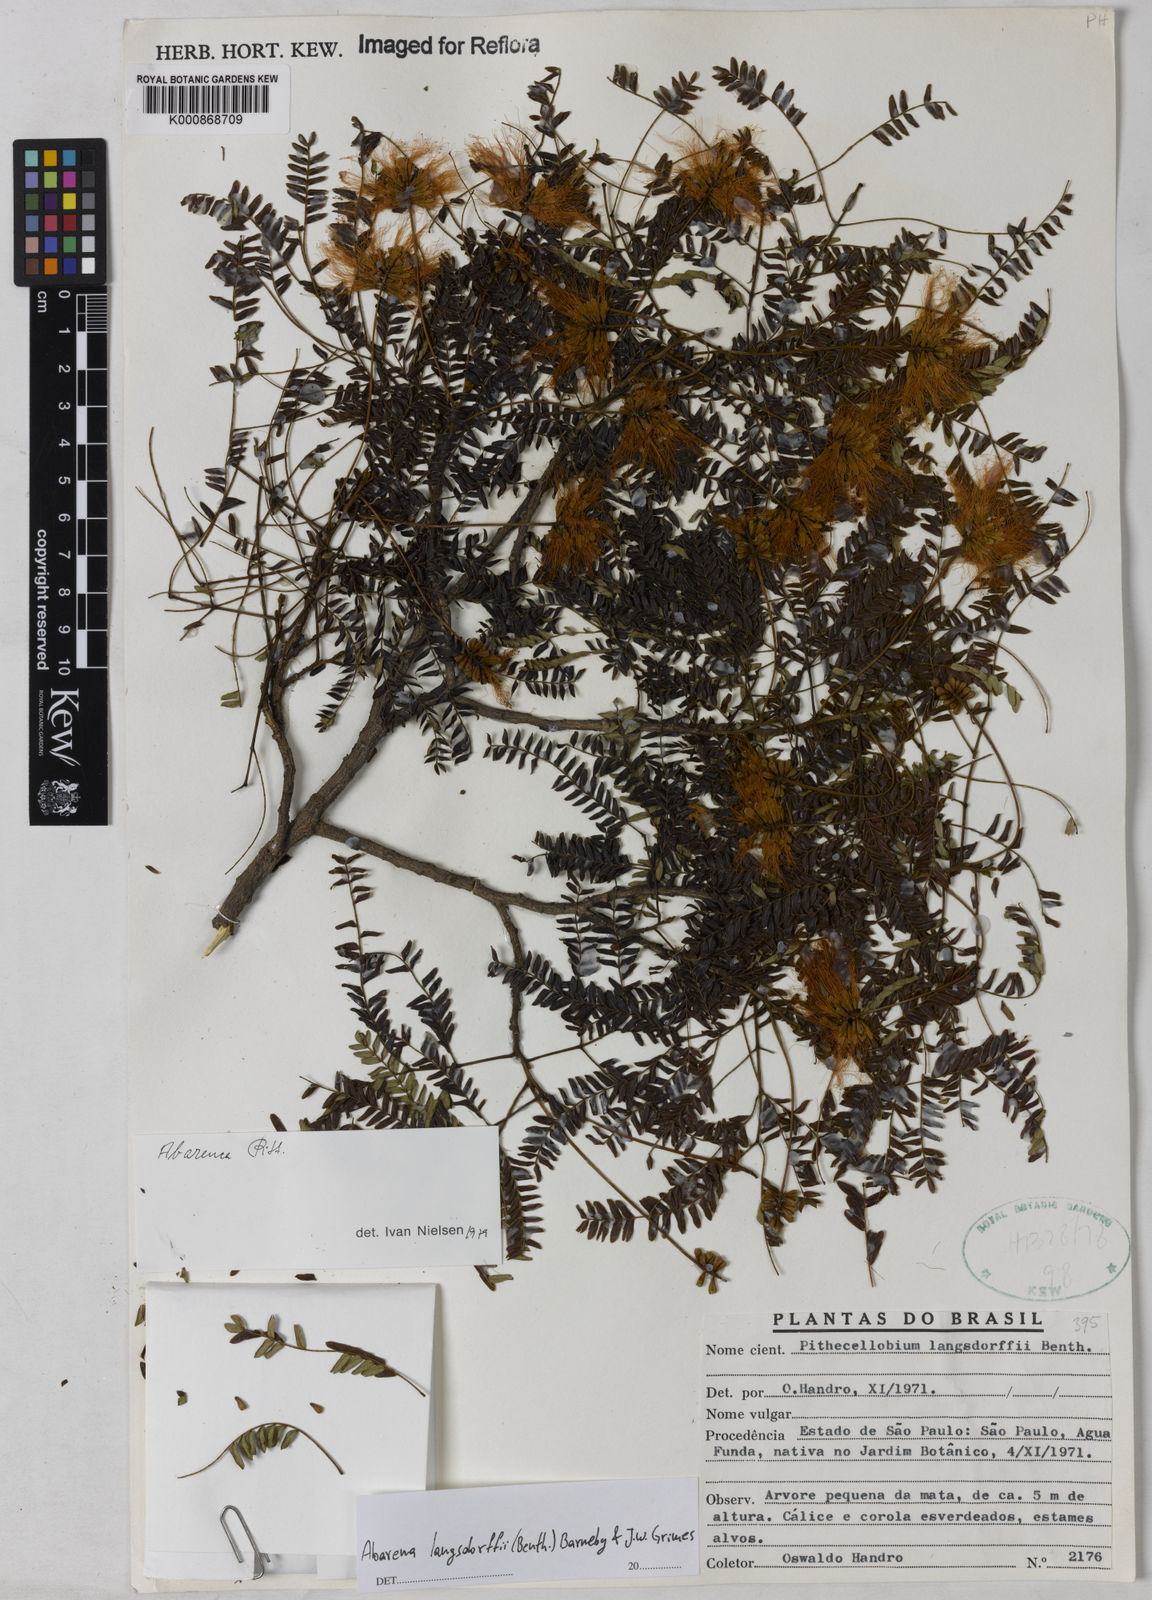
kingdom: Plantae
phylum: Tracheophyta
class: Magnoliopsida
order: Fabales
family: Fabaceae
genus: Jupunba
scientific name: Jupunba langsdorffii
